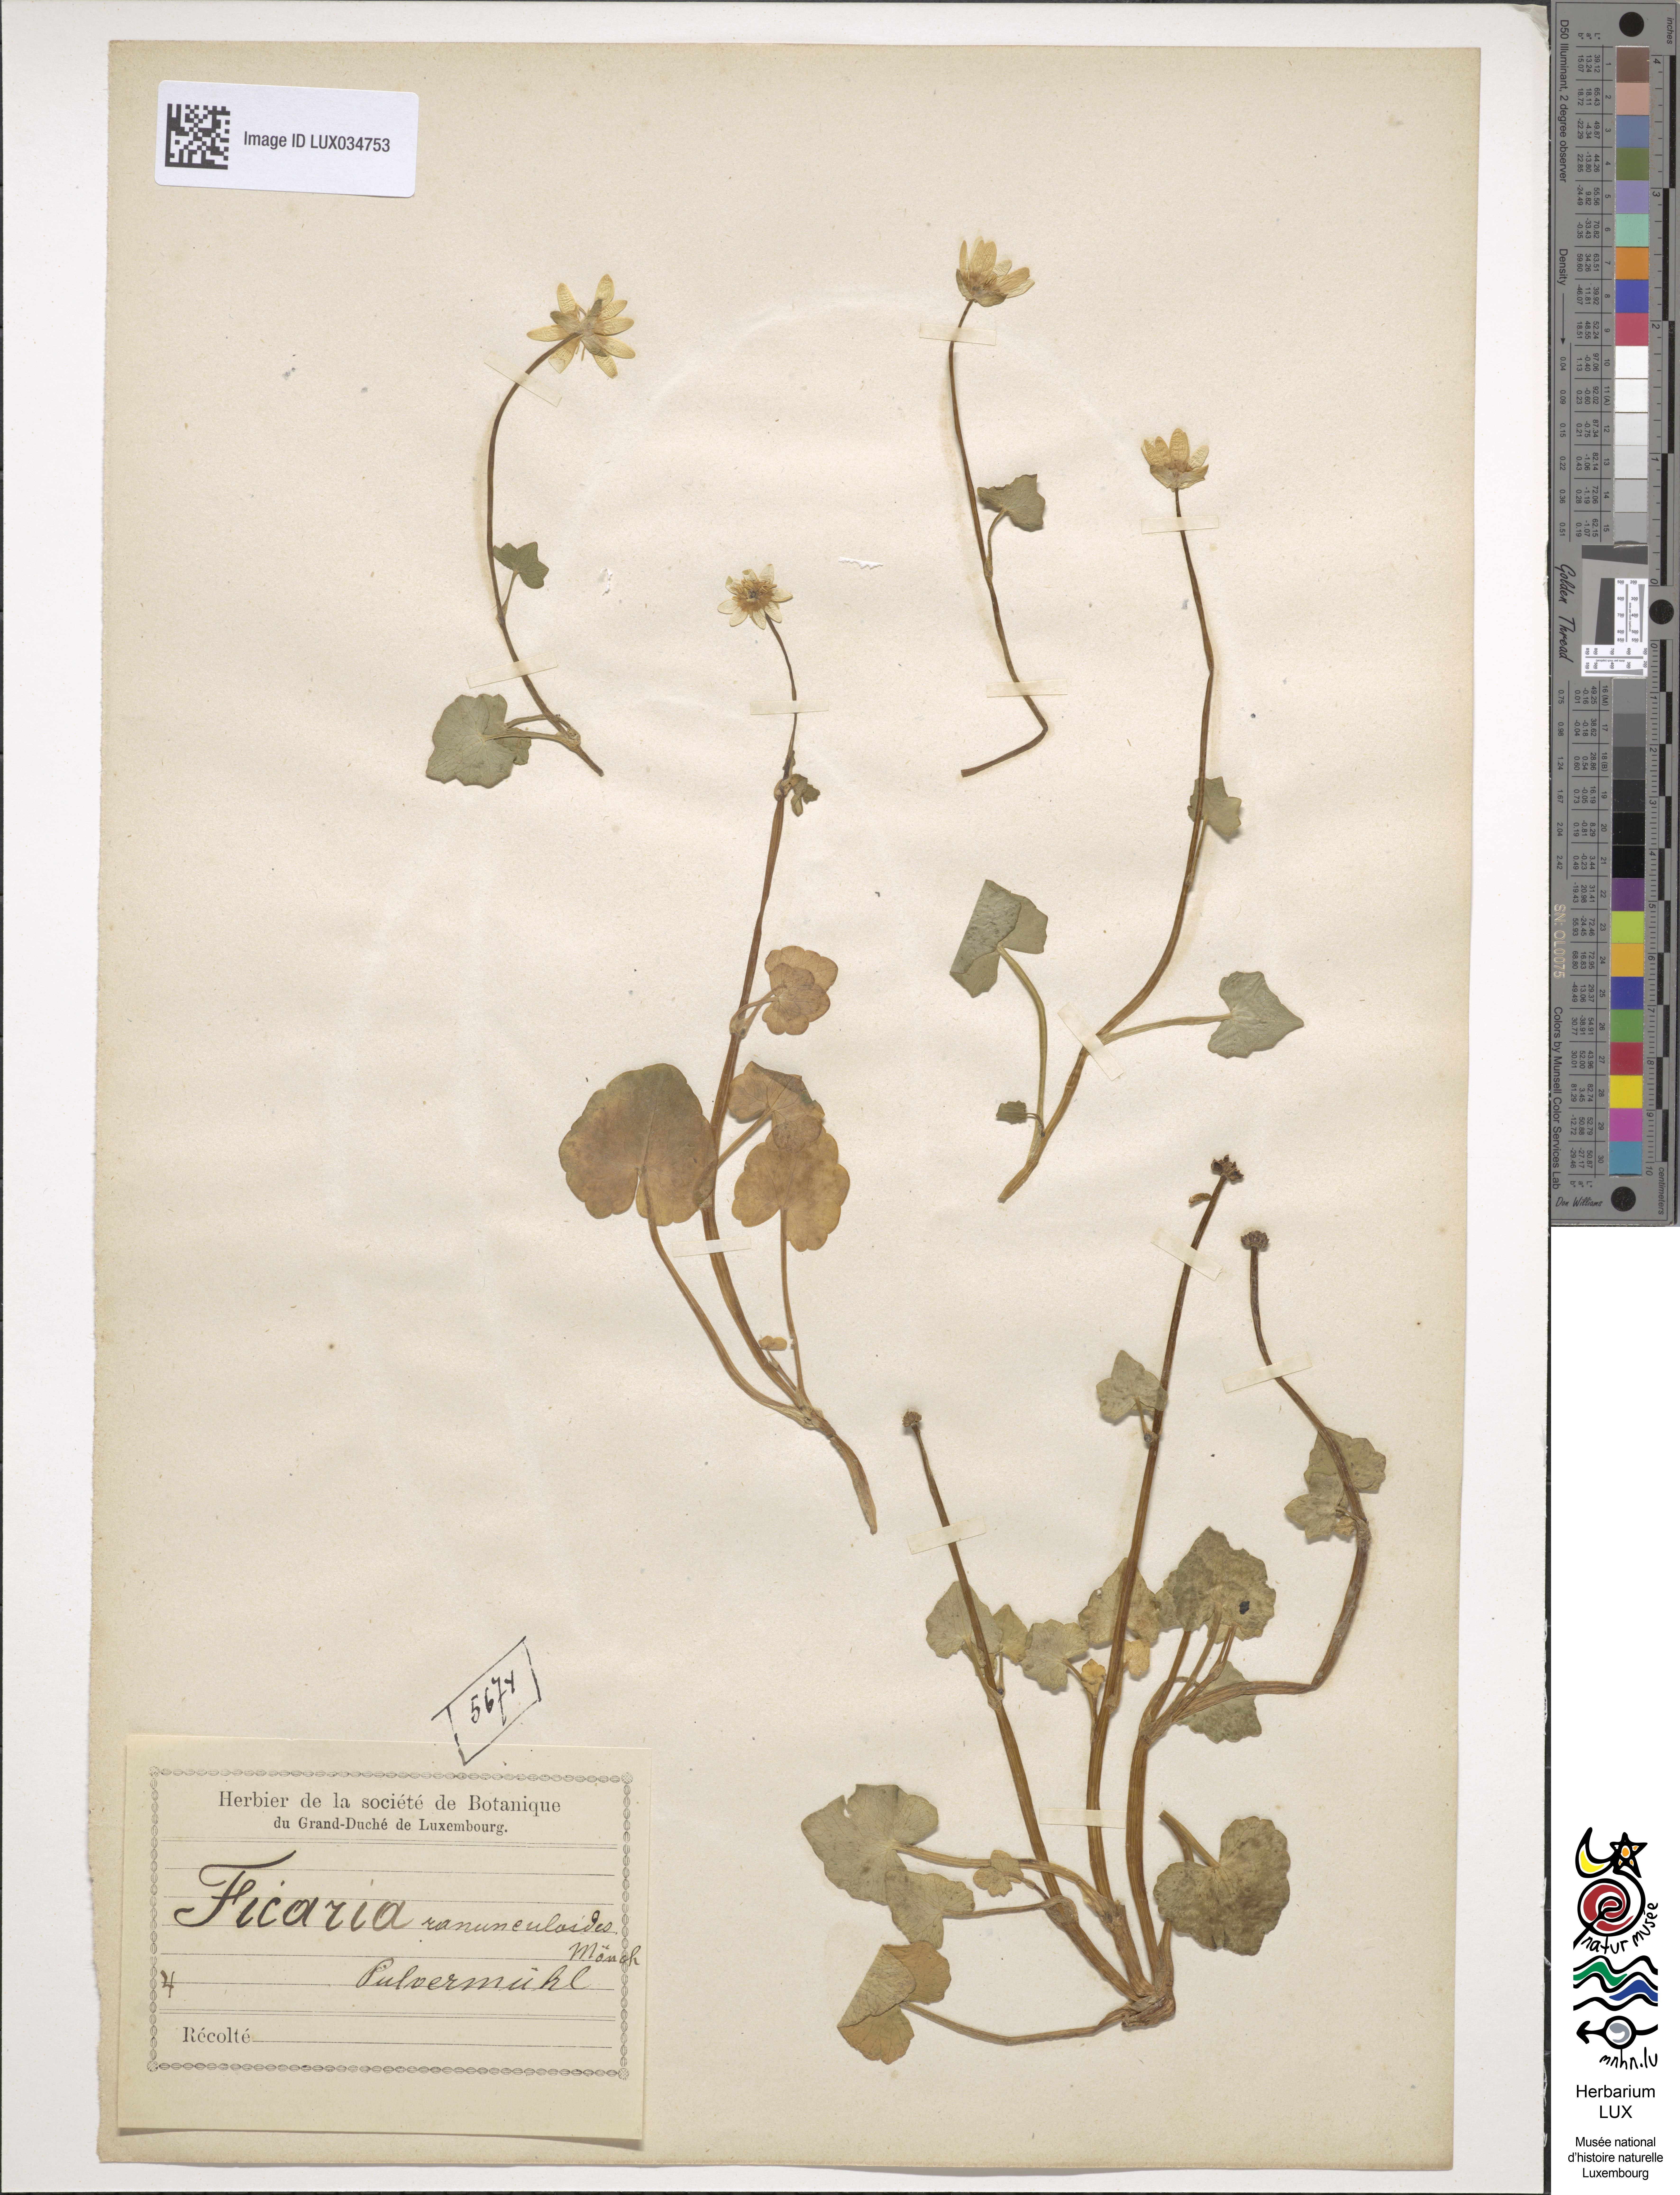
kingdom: Plantae
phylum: Tracheophyta
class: Magnoliopsida
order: Ranunculales
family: Ranunculaceae
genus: Ficaria
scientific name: Ficaria verna
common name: Lesser celandine
